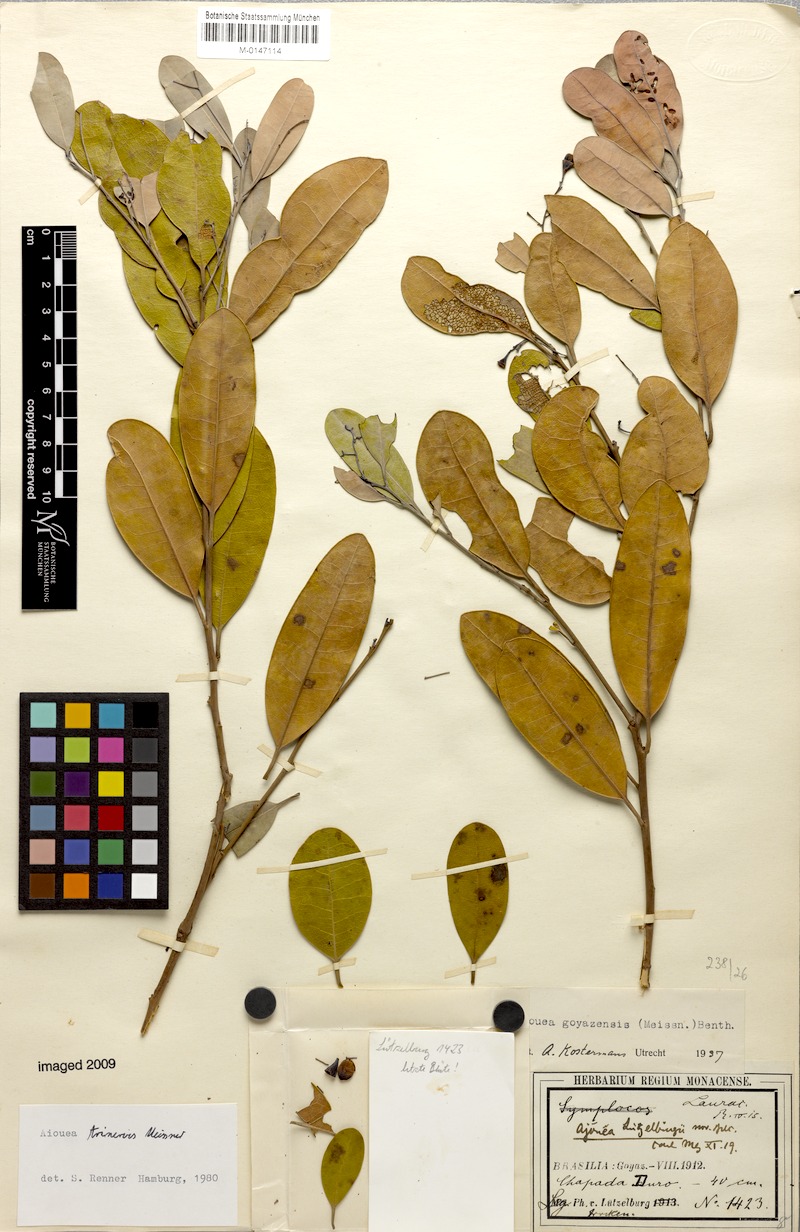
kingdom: Plantae
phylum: Tracheophyta
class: Magnoliopsida
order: Laurales
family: Lauraceae
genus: Aiouea
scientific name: Aiouea trinervis
